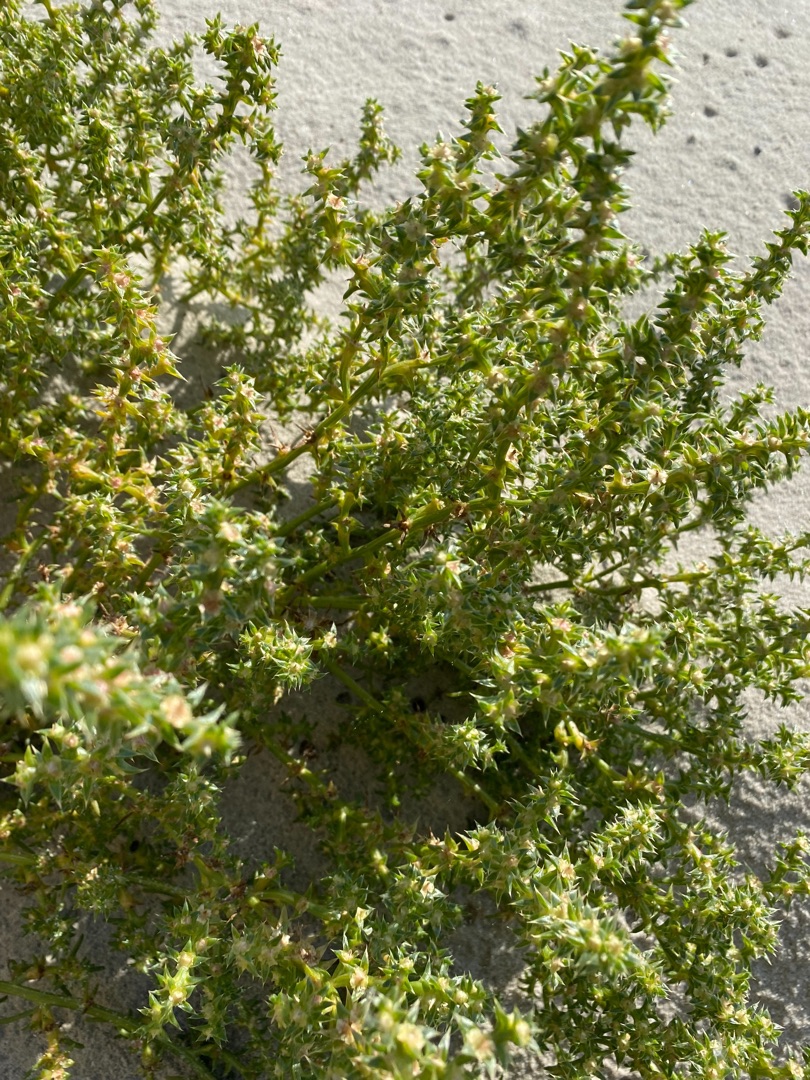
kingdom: Plantae
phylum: Tracheophyta
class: Magnoliopsida
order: Caryophyllales
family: Amaranthaceae
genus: Salsola
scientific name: Salsola kali
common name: Sodaurt
